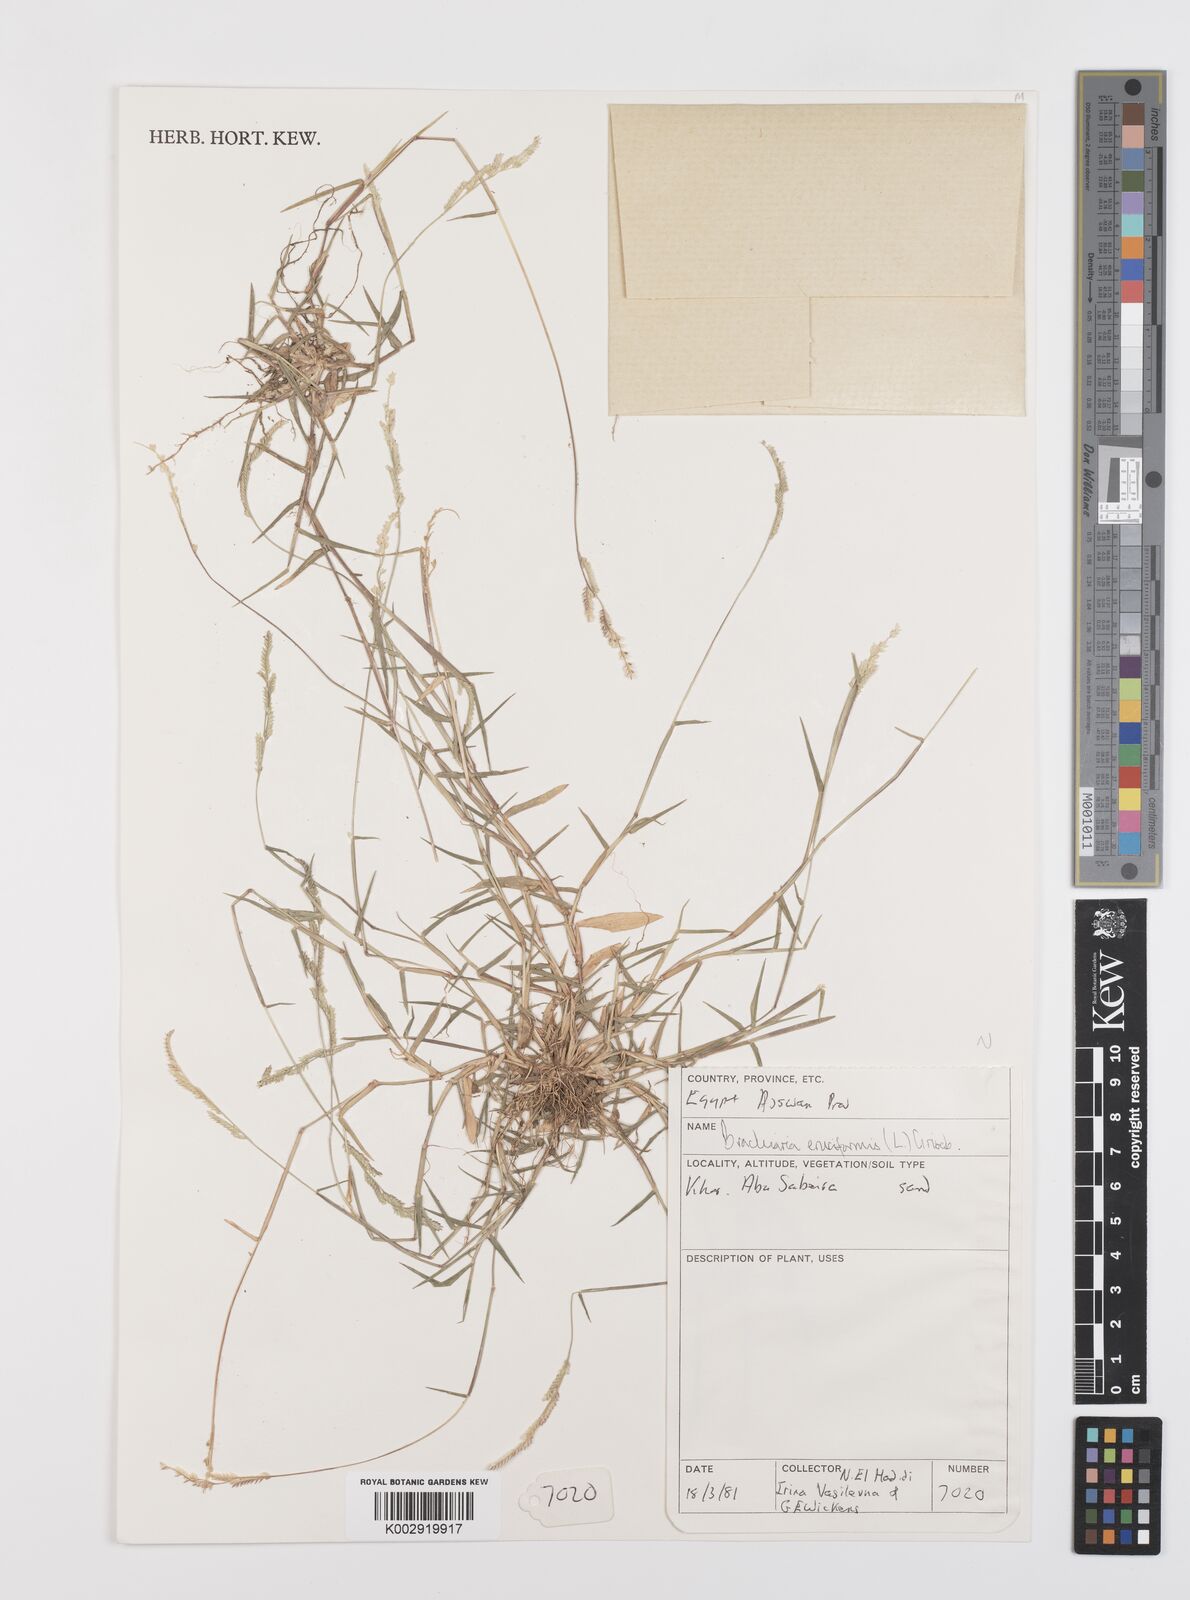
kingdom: Plantae
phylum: Tracheophyta
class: Liliopsida
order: Poales
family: Poaceae
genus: Moorochloa
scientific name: Moorochloa eruciformis
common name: Sweet signalgrass
